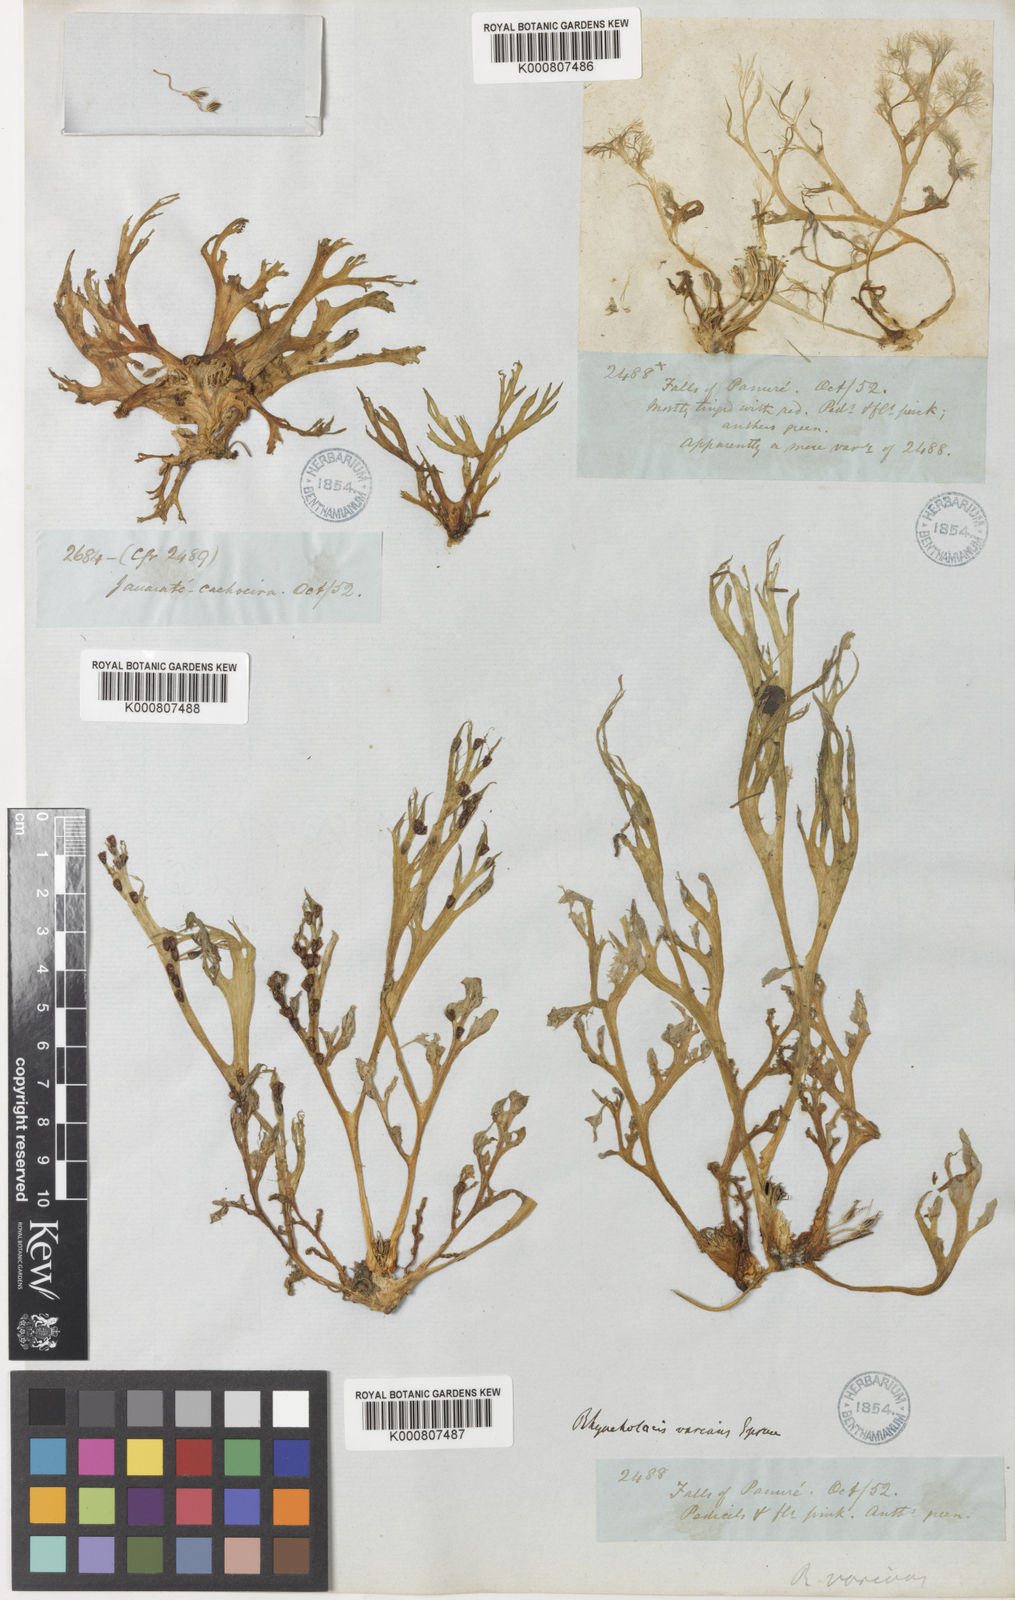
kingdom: Plantae
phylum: Tracheophyta
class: Magnoliopsida
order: Malpighiales
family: Podostemaceae
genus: Rhyncholacis
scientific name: Rhyncholacis varians
